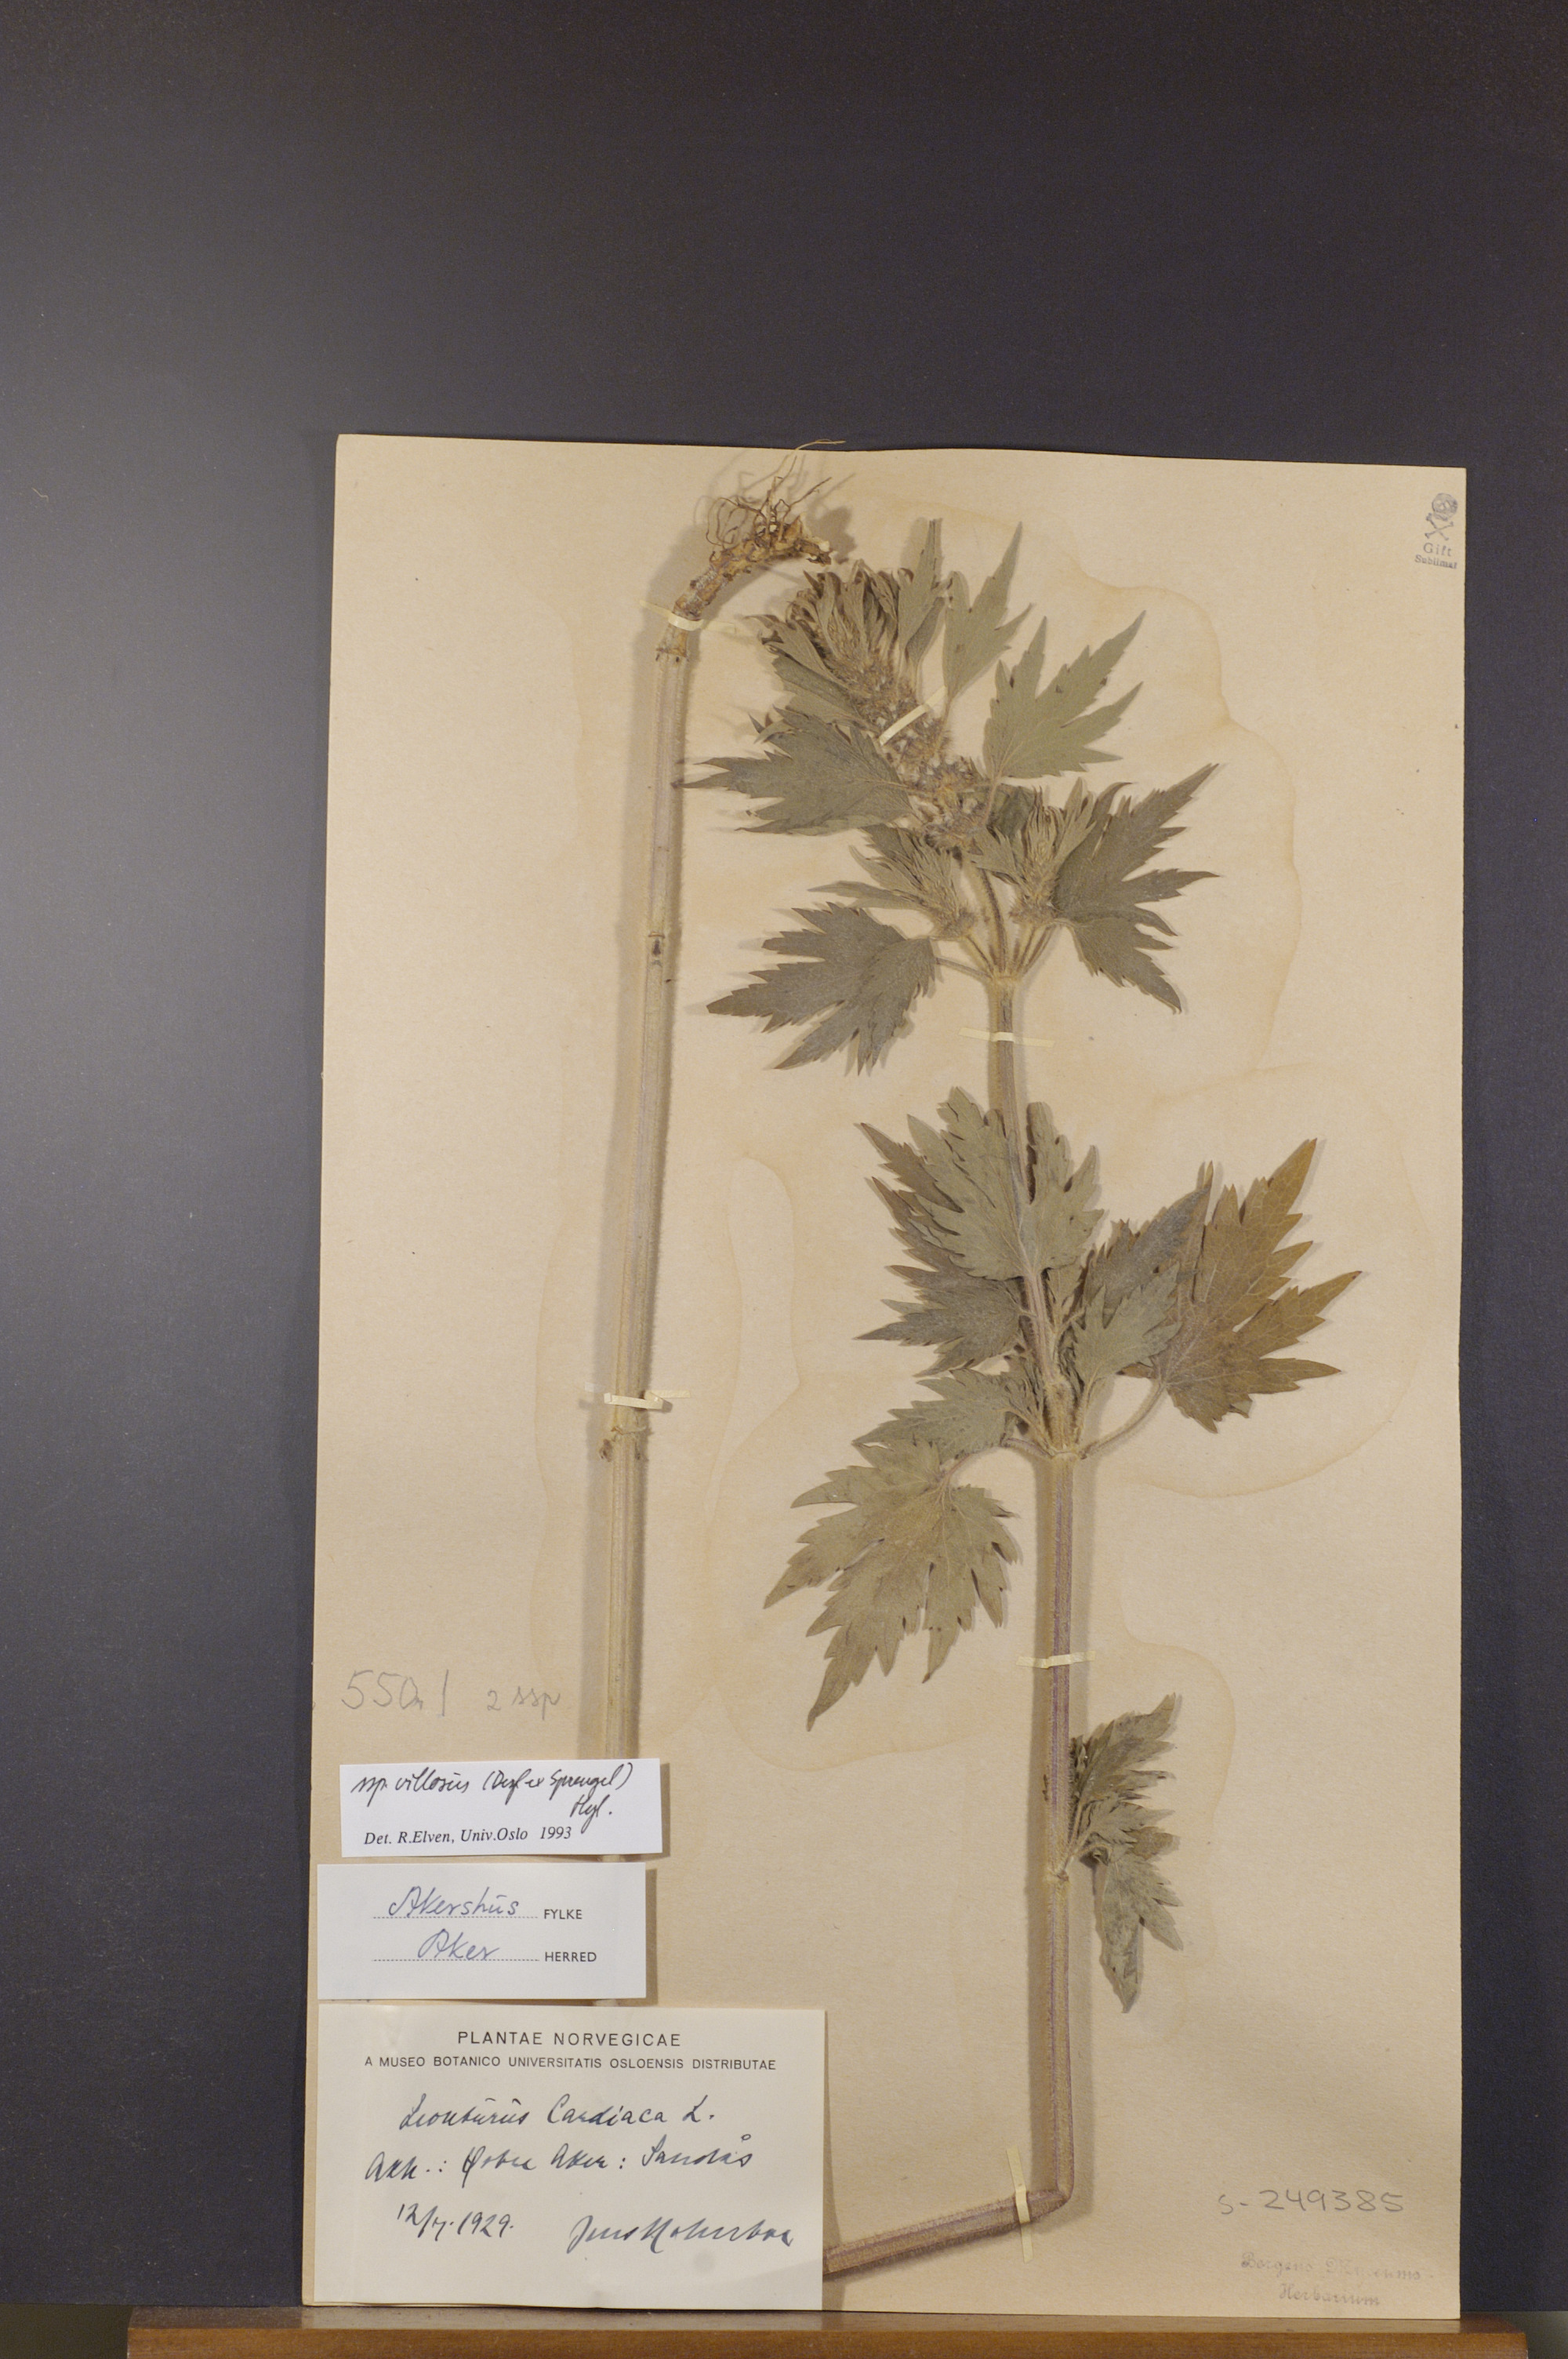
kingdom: Plantae
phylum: Tracheophyta
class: Magnoliopsida
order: Lamiales
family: Lamiaceae
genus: Leonurus
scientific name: Leonurus quinquelobatus
